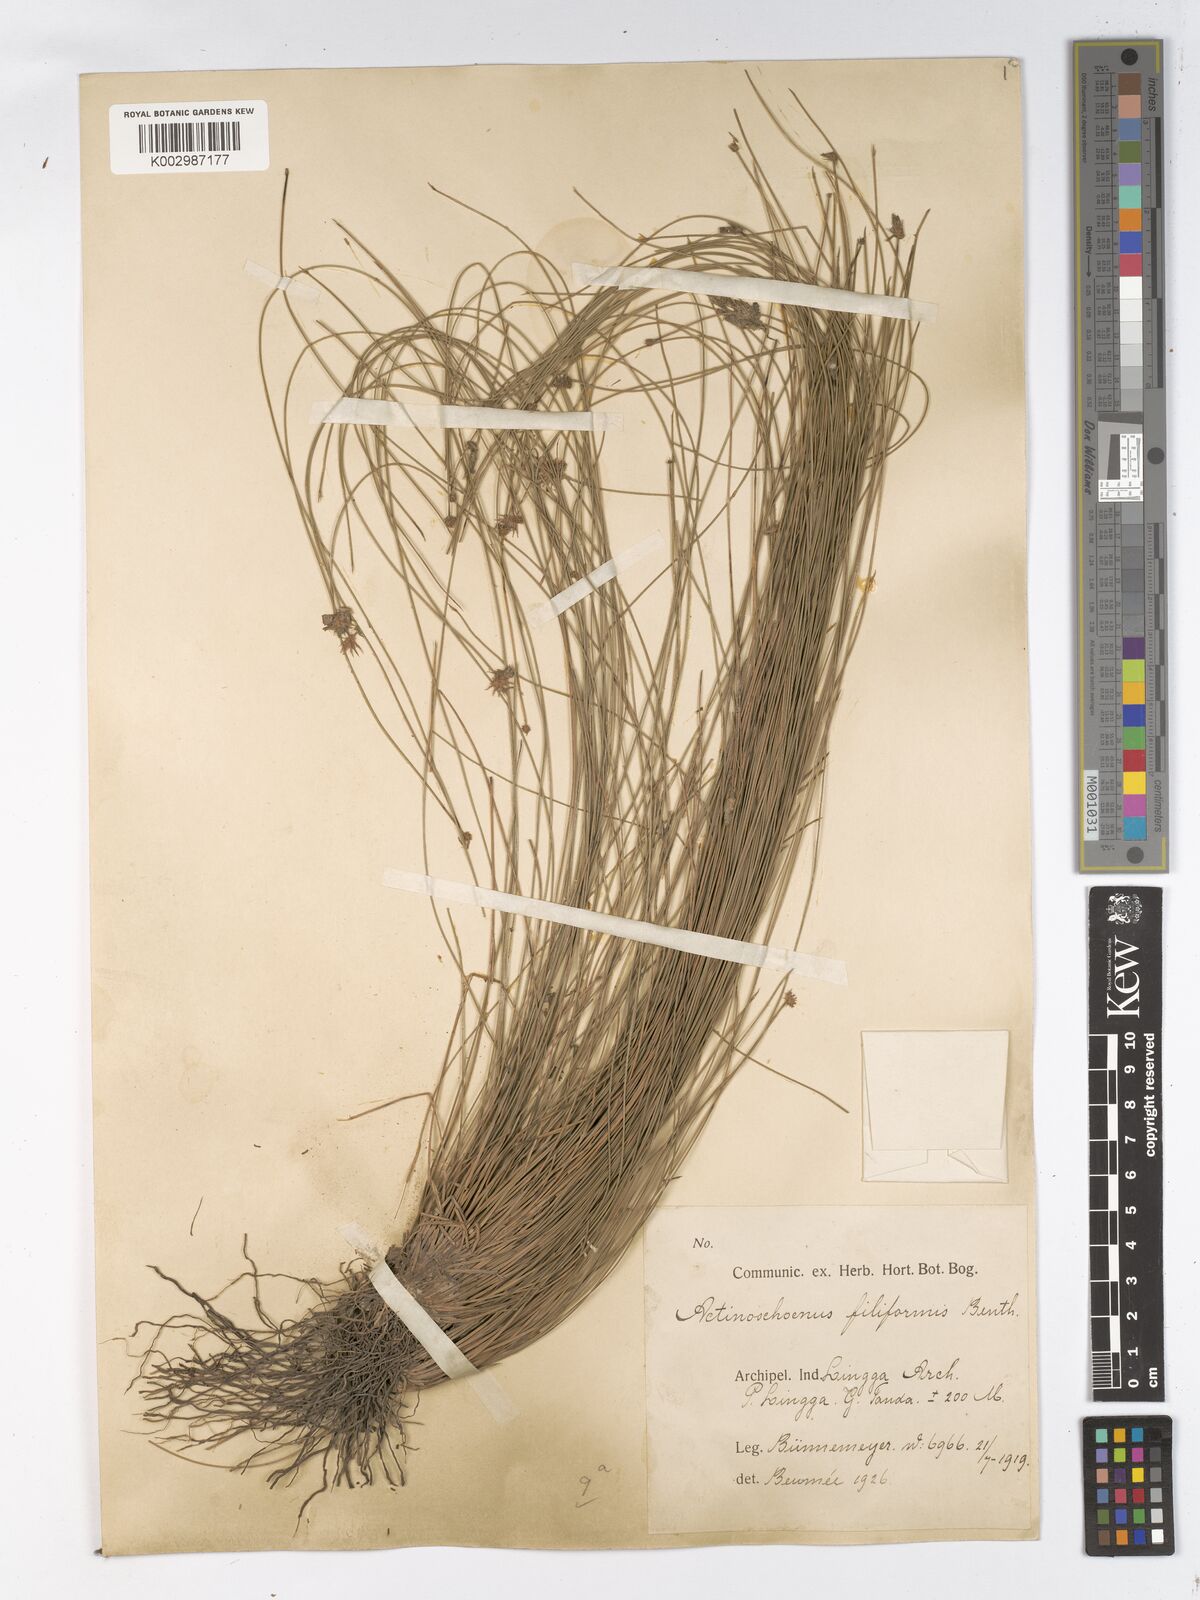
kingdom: Plantae
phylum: Tracheophyta
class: Liliopsida
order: Poales
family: Cyperaceae
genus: Actinoschoenus
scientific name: Actinoschoenus aphyllus
